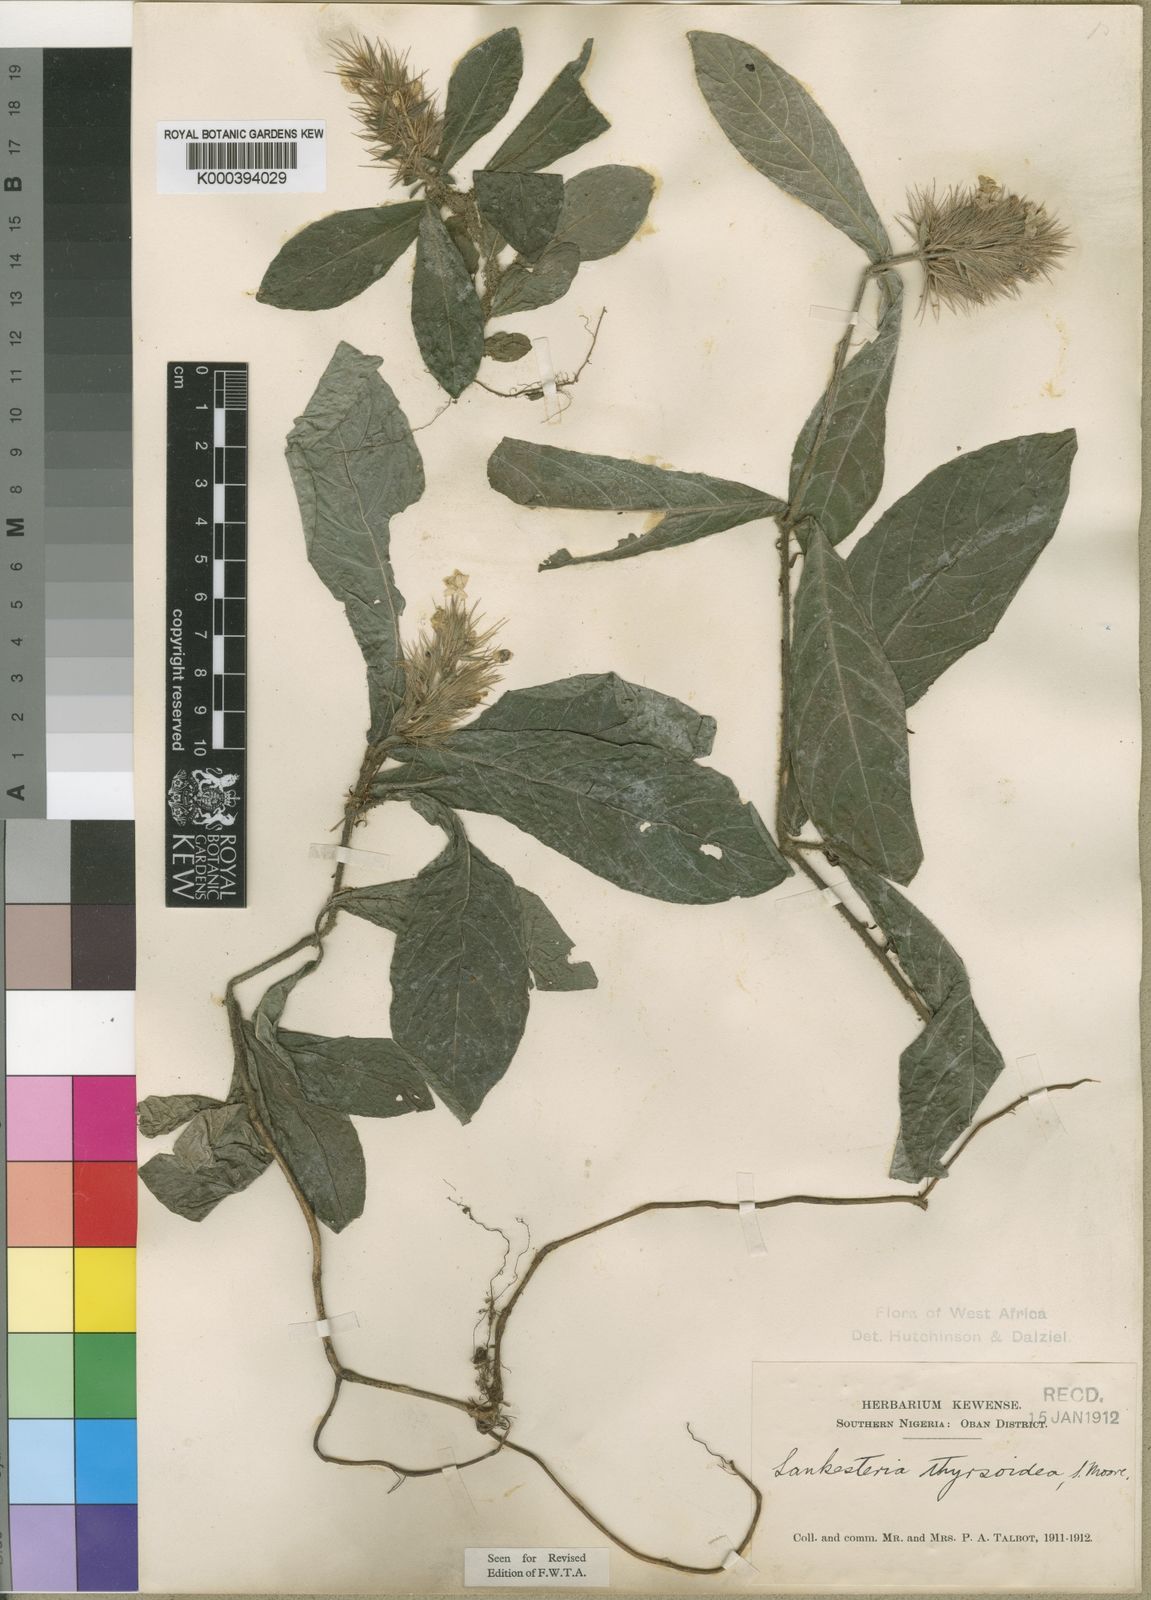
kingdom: Plantae
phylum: Tracheophyta
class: Magnoliopsida
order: Lamiales
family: Acanthaceae
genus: Lankesteria
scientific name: Lankesteria thyrsoidea
